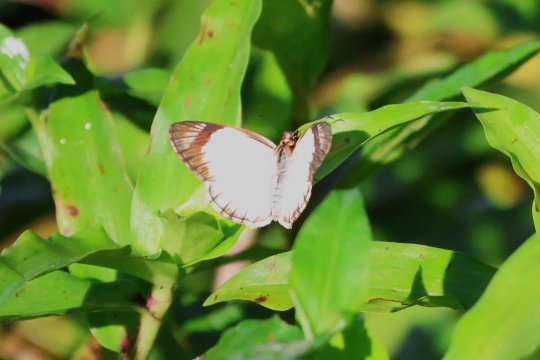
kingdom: Animalia
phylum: Arthropoda
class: Insecta
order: Lepidoptera
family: Hesperiidae
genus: Heliopetes
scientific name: Heliopetes alana
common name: Alana White-Skipper
